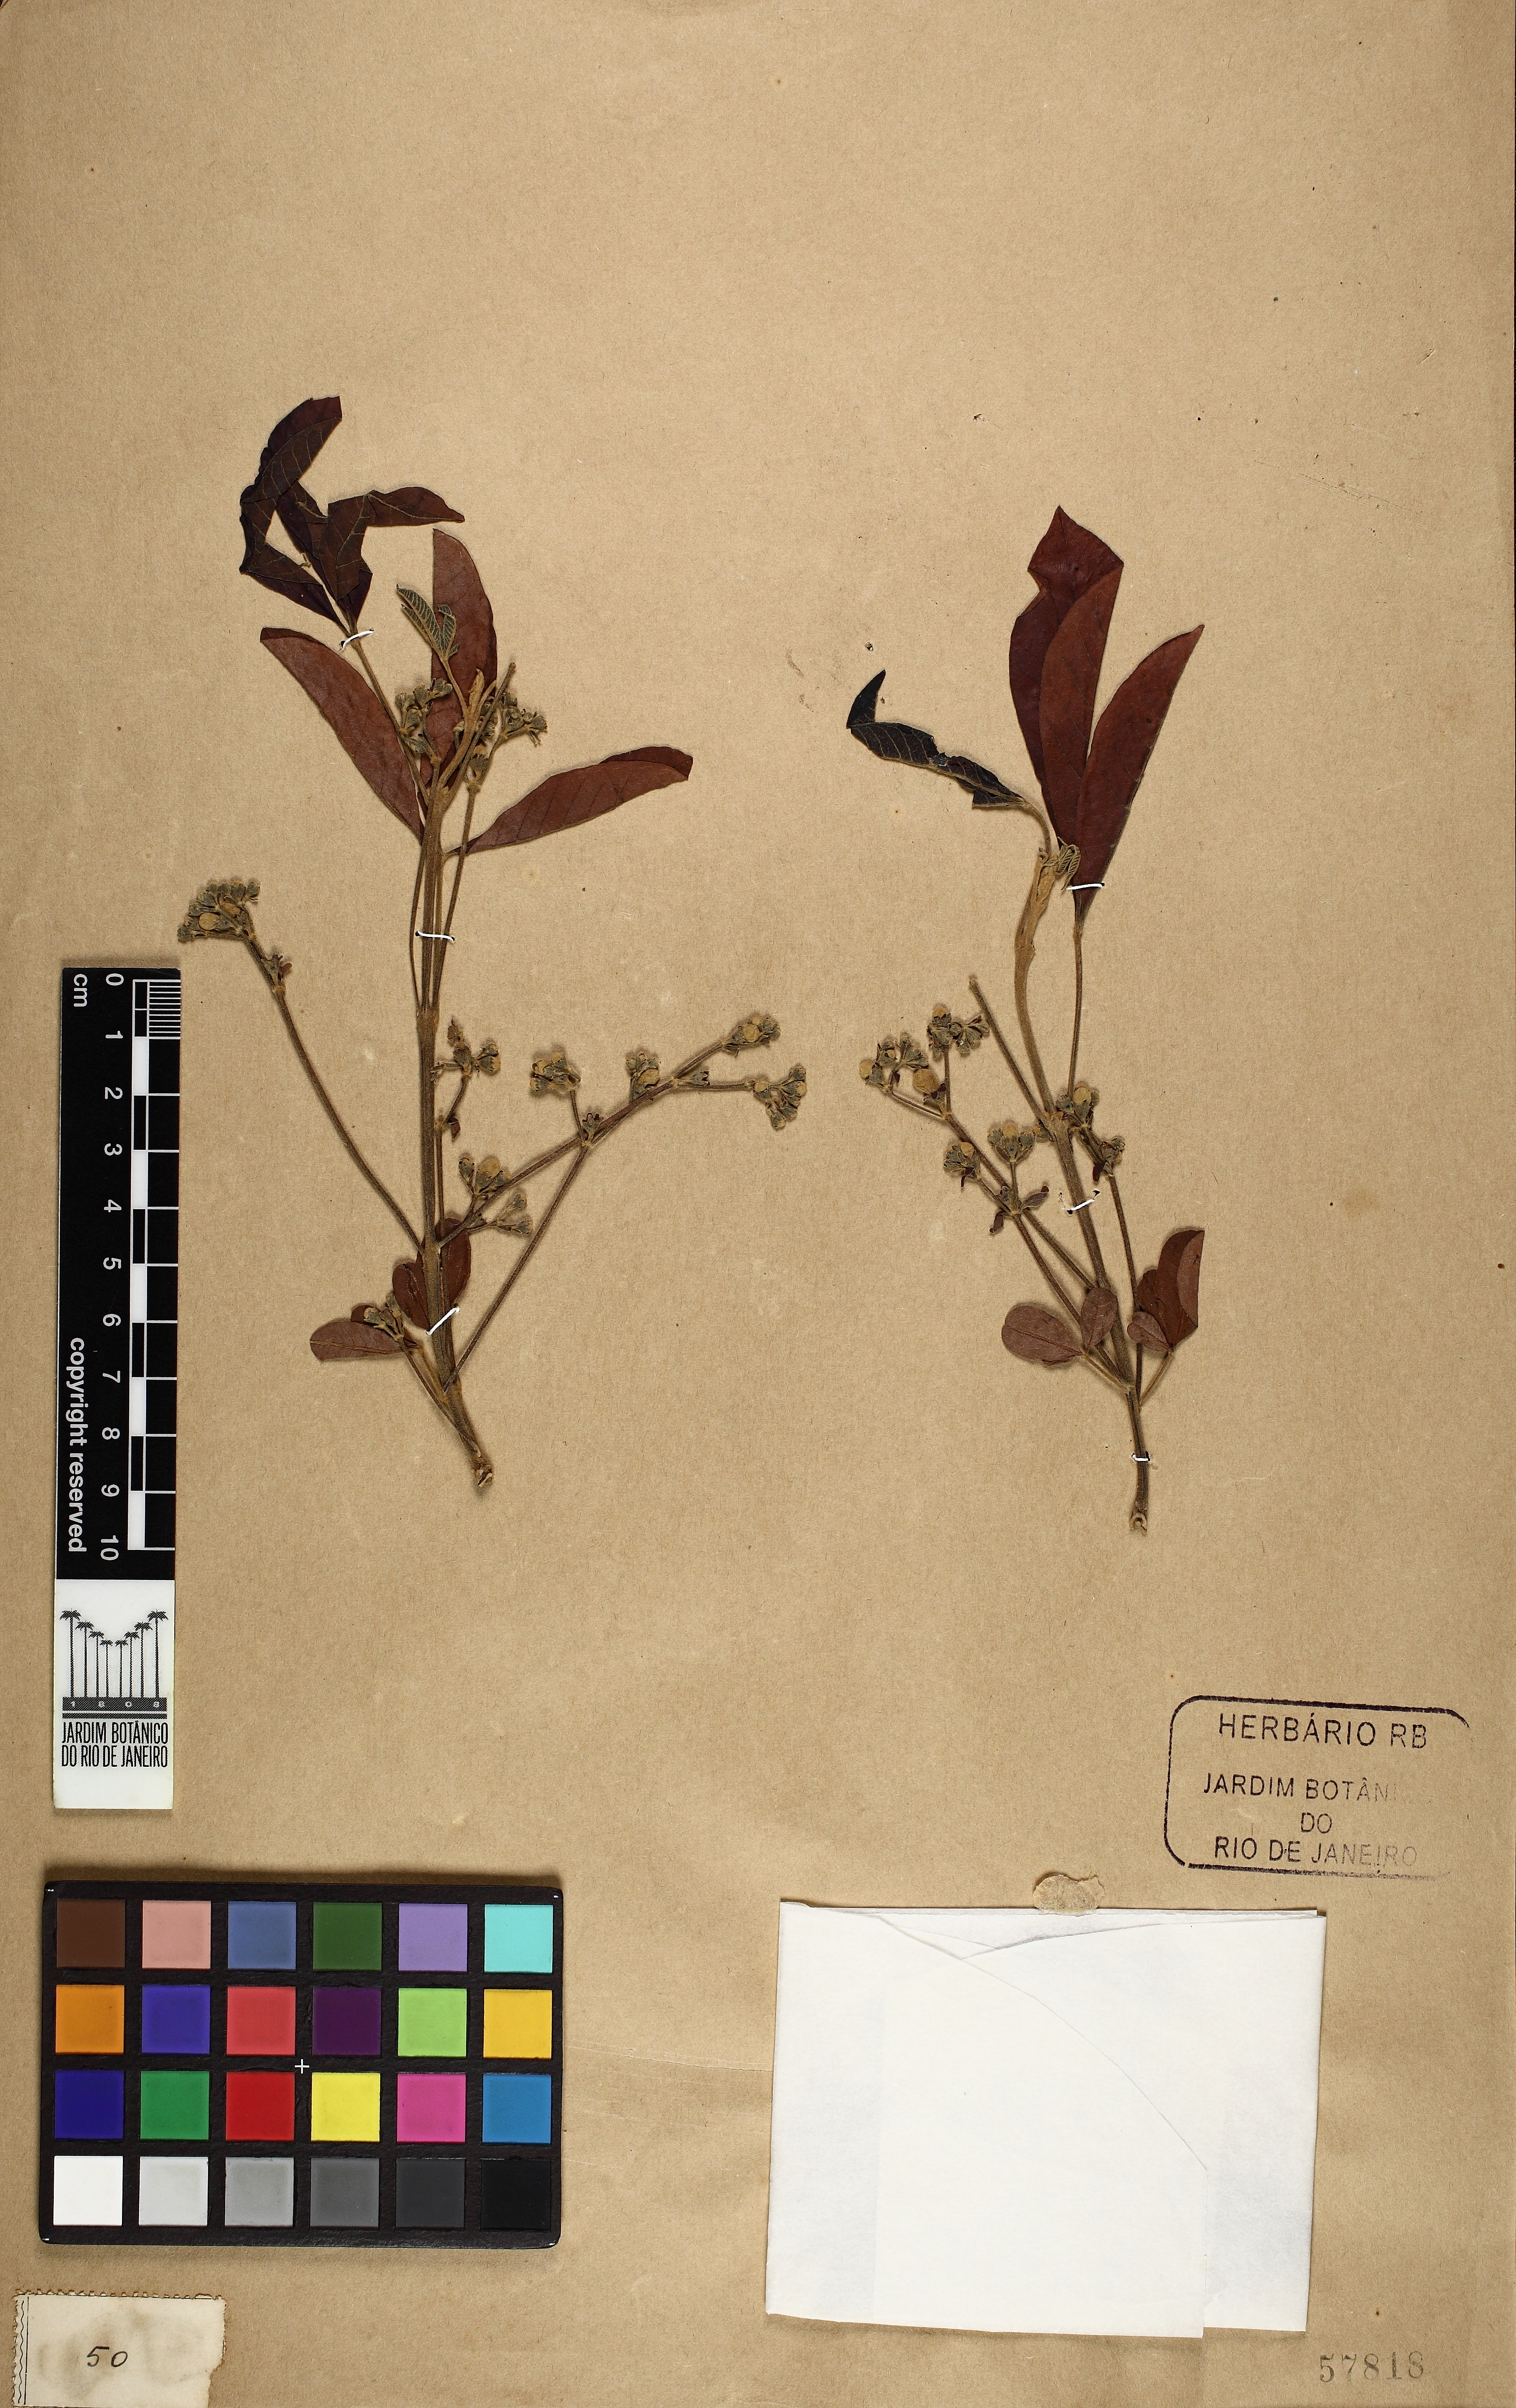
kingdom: Plantae
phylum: Tracheophyta
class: Magnoliopsida
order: Lamiales
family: Lamiaceae
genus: Vitex
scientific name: Vitex megapotamica
